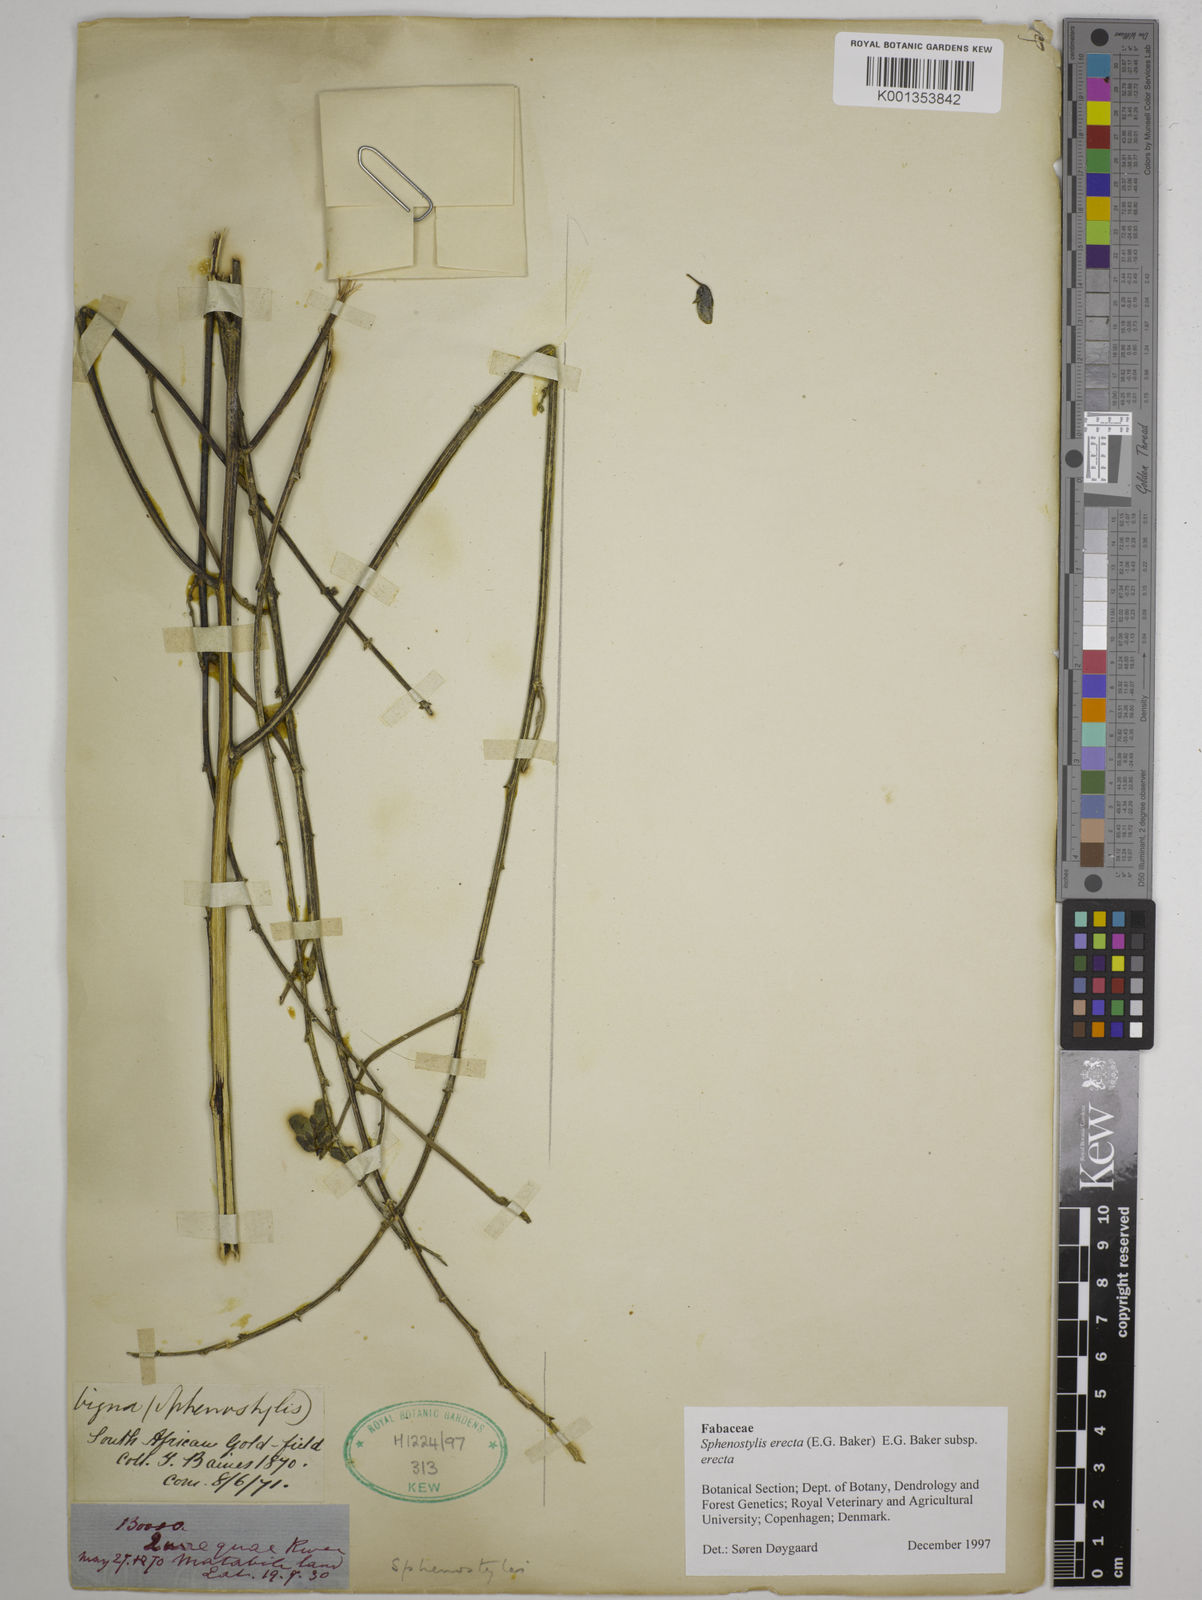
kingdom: Plantae
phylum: Tracheophyta
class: Magnoliopsida
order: Fabales
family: Fabaceae
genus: Sphenostylis
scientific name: Sphenostylis erecta
